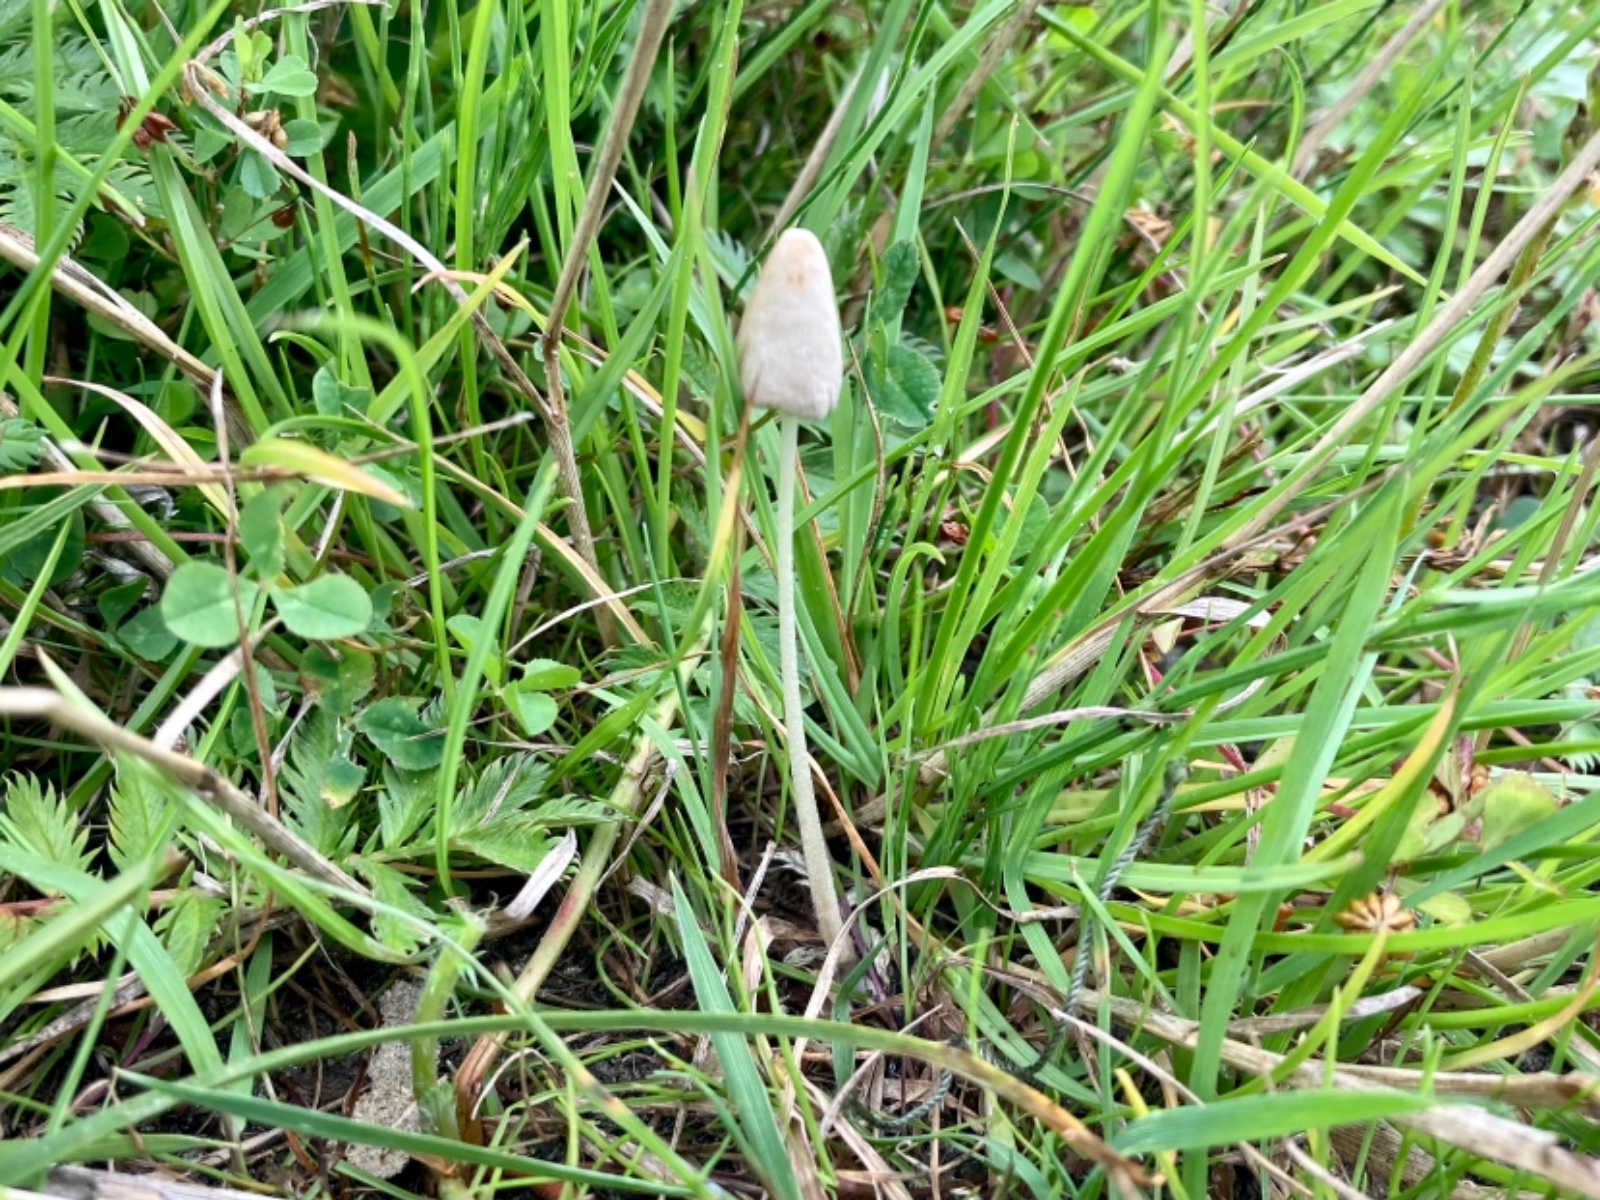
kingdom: Fungi
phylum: Basidiomycota
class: Agaricomycetes
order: Agaricales
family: Bolbitiaceae
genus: Conocybe
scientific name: Conocybe apala
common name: mælkehvid keglehat
